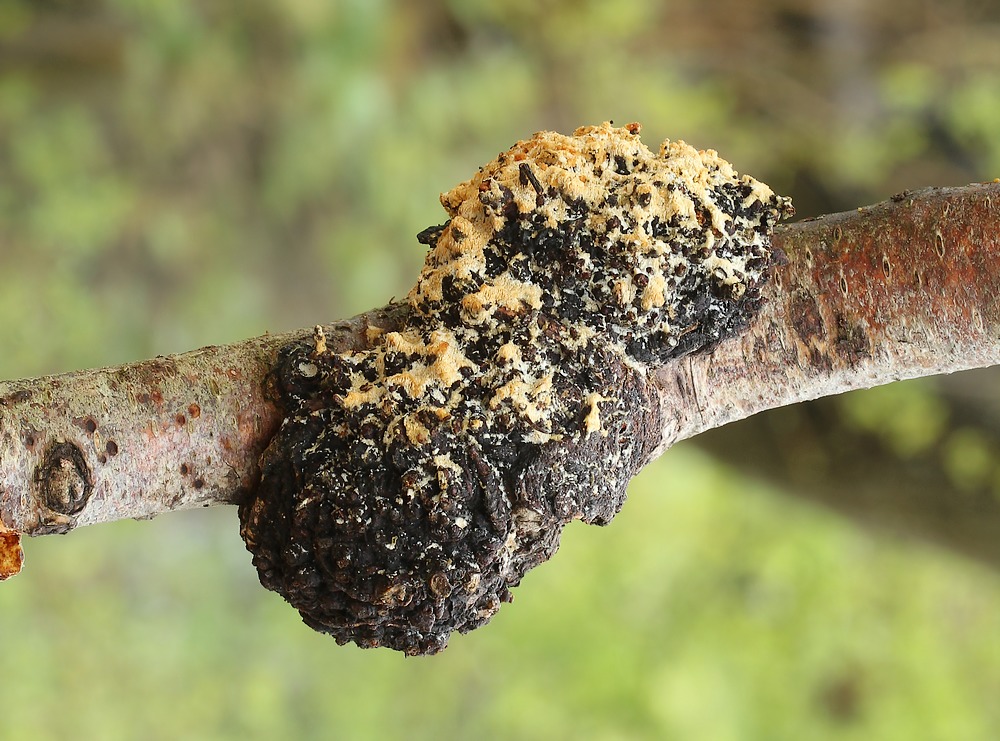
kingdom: Fungi
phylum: Basidiomycota
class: Agaricomycetes
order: Hymenochaetales
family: Schizoporaceae
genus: Xylodon
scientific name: Xylodon subtropicus
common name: labyrint-tandsvamp
